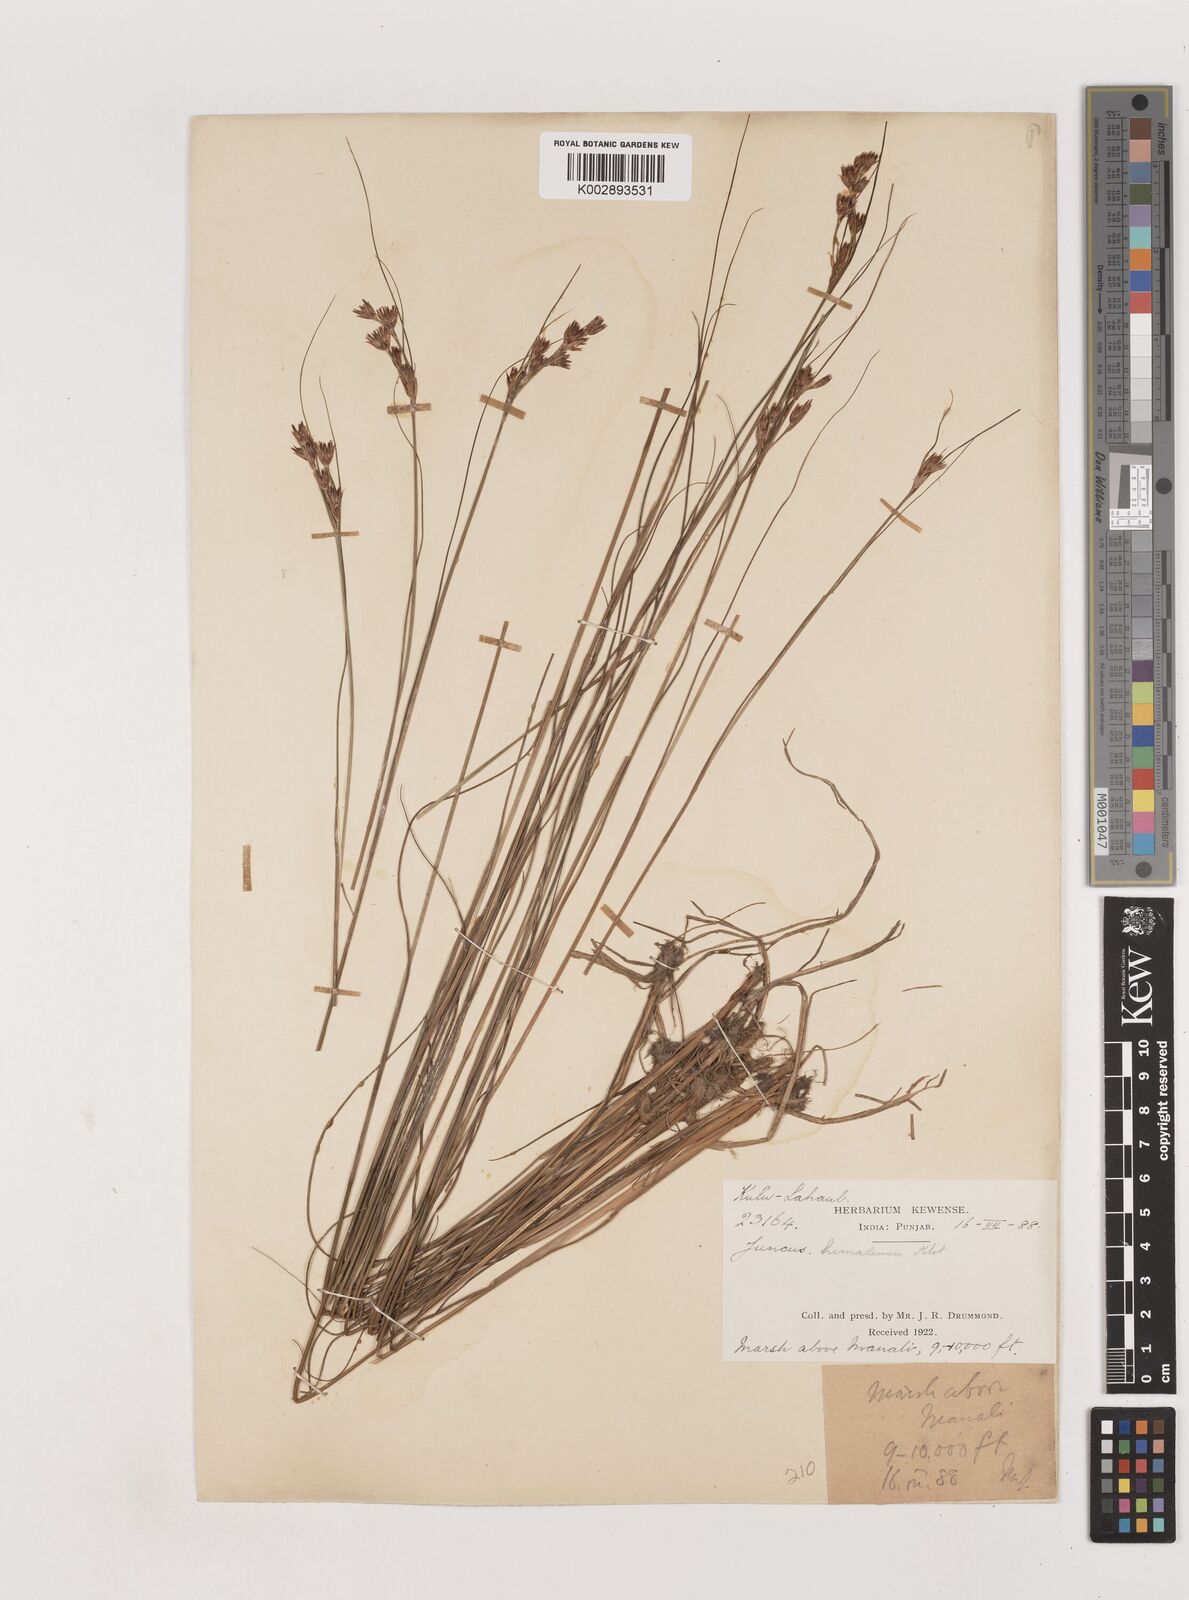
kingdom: Plantae
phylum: Tracheophyta
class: Liliopsida
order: Poales
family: Juncaceae
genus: Juncus
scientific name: Juncus himalensis
